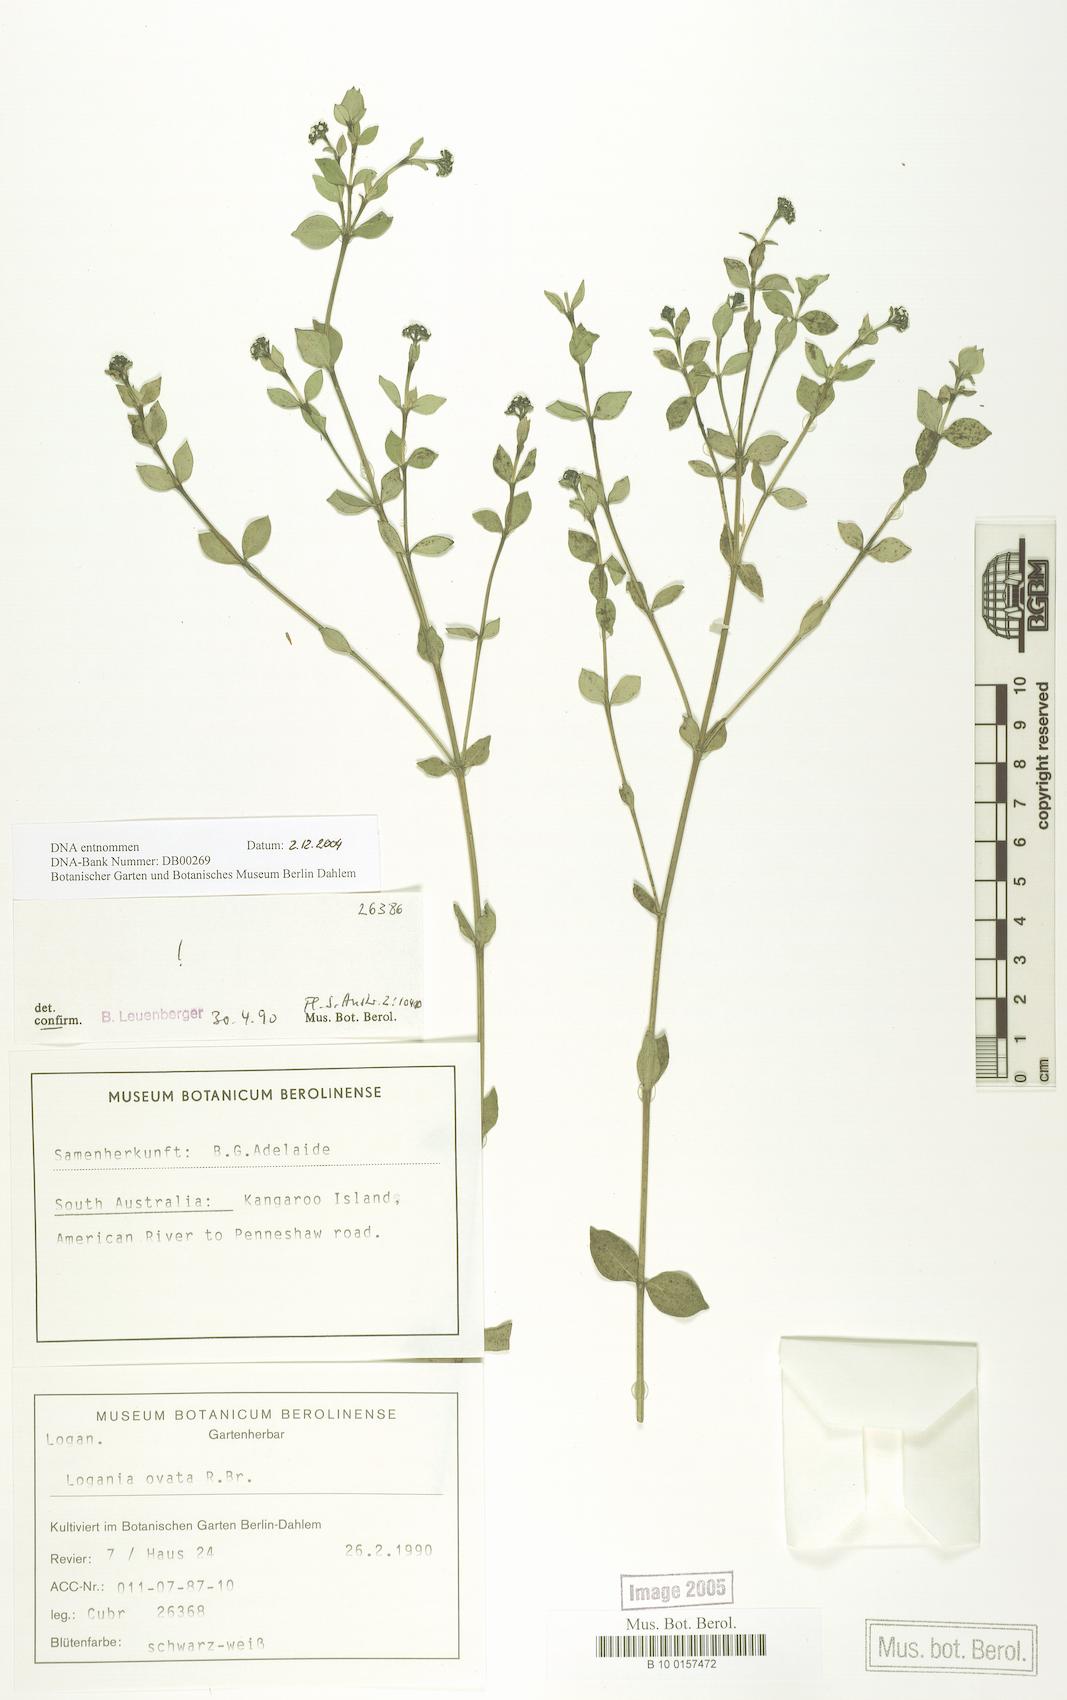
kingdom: Plantae
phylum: Tracheophyta
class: Magnoliopsida
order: Gentianales
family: Loganiaceae
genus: Logania
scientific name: Logania ovata
